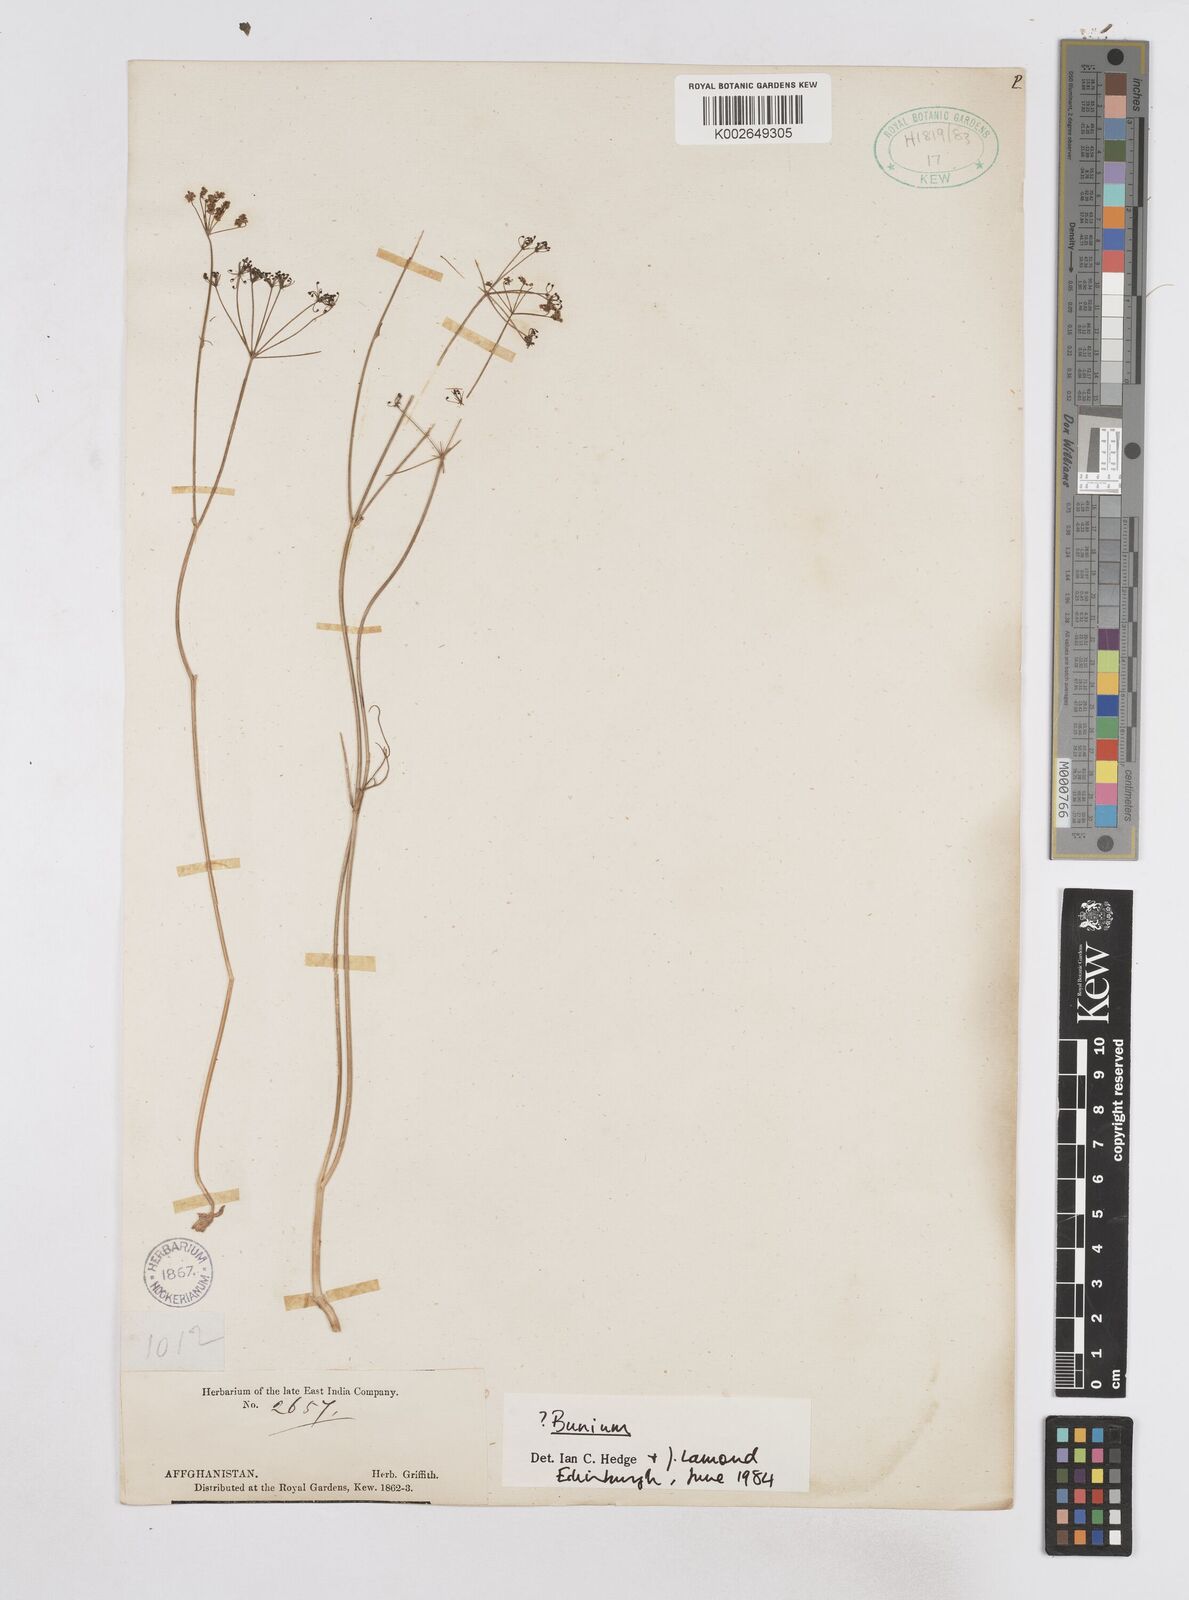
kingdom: Plantae
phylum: Tracheophyta
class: Magnoliopsida
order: Apiales
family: Apiaceae
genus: Bunium
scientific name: Bunium
